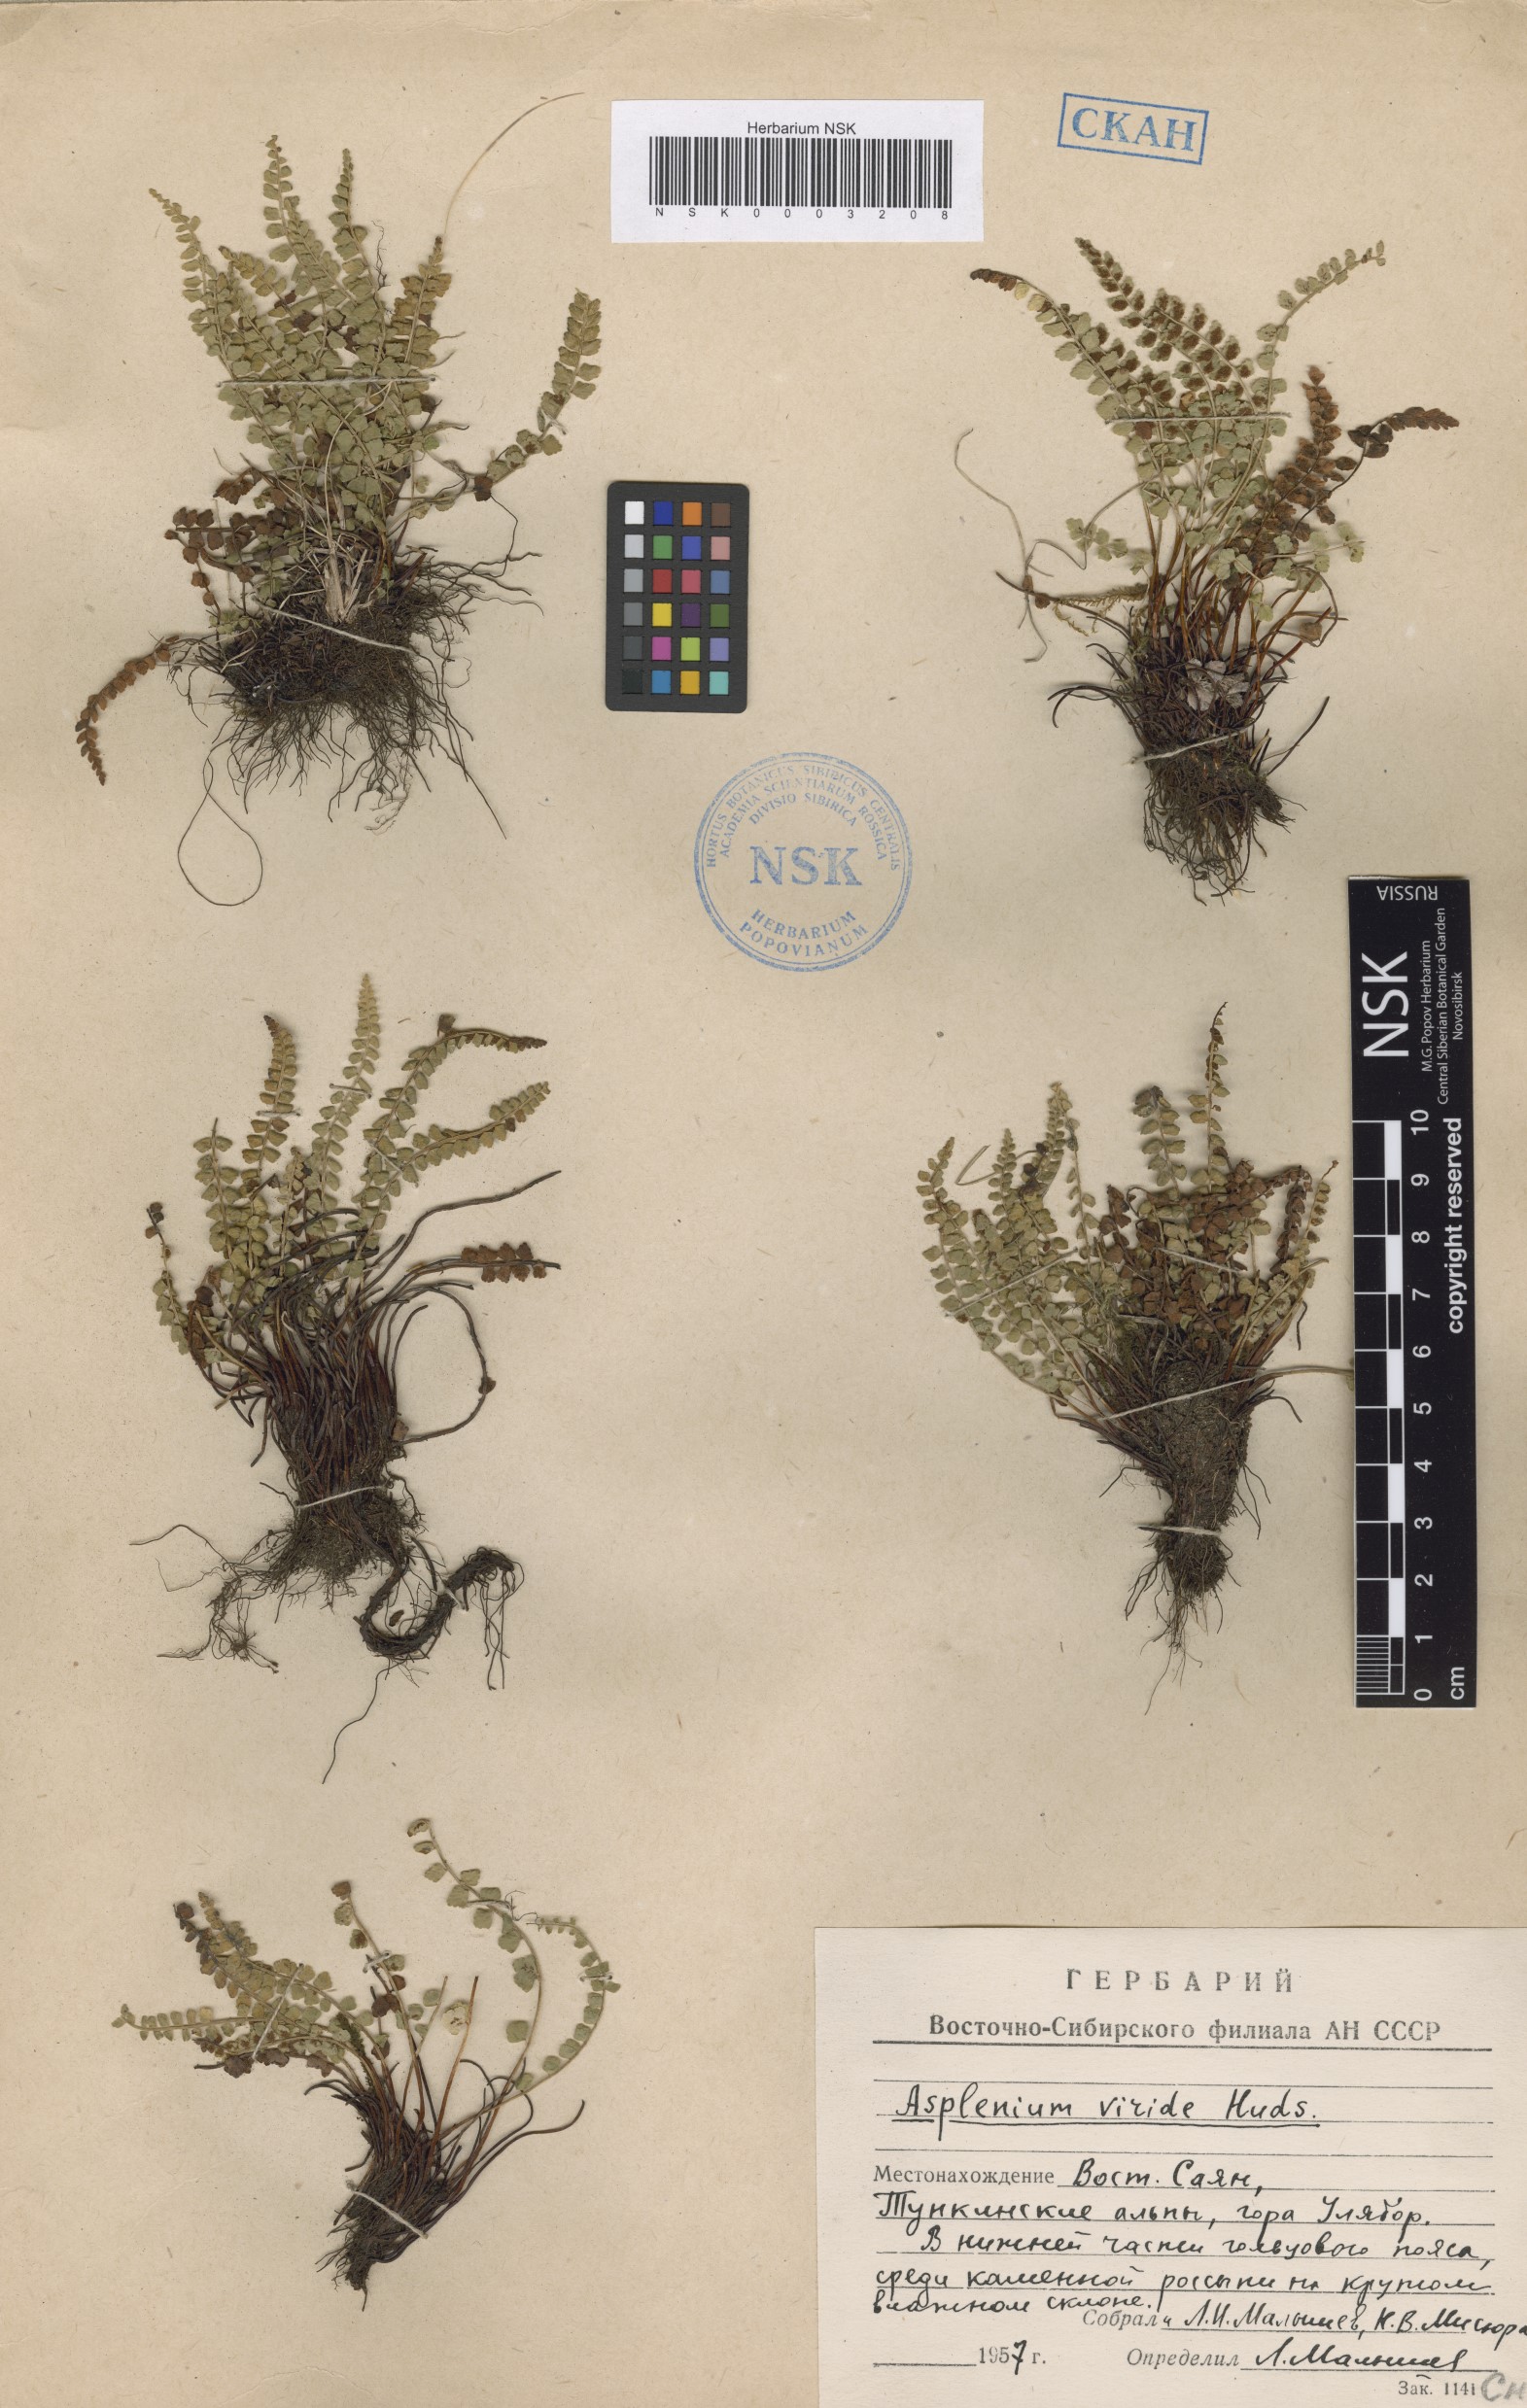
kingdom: Plantae
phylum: Tracheophyta
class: Polypodiopsida
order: Polypodiales
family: Aspleniaceae
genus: Asplenium
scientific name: Asplenium viride
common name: Green spleenwort
